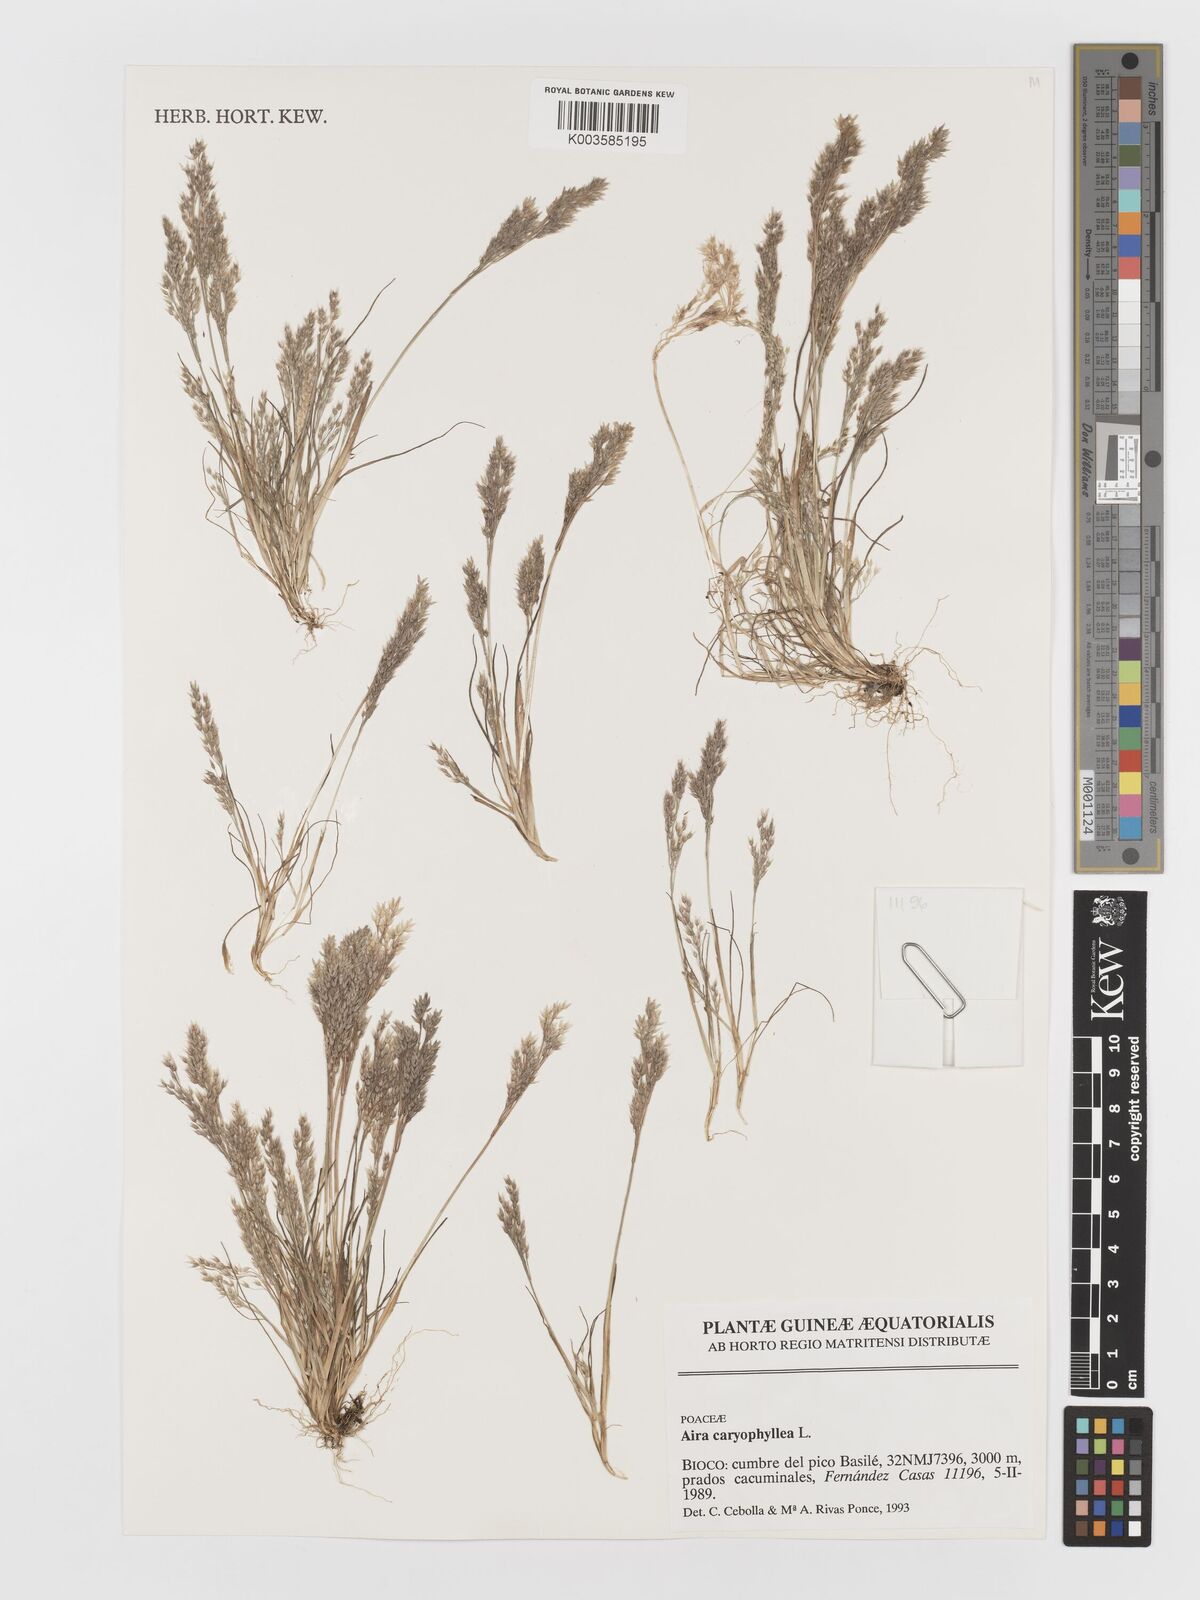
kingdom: Plantae
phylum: Tracheophyta
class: Liliopsida
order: Poales
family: Poaceae
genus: Aira
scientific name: Aira caryophyllea
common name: Silver hairgrass
